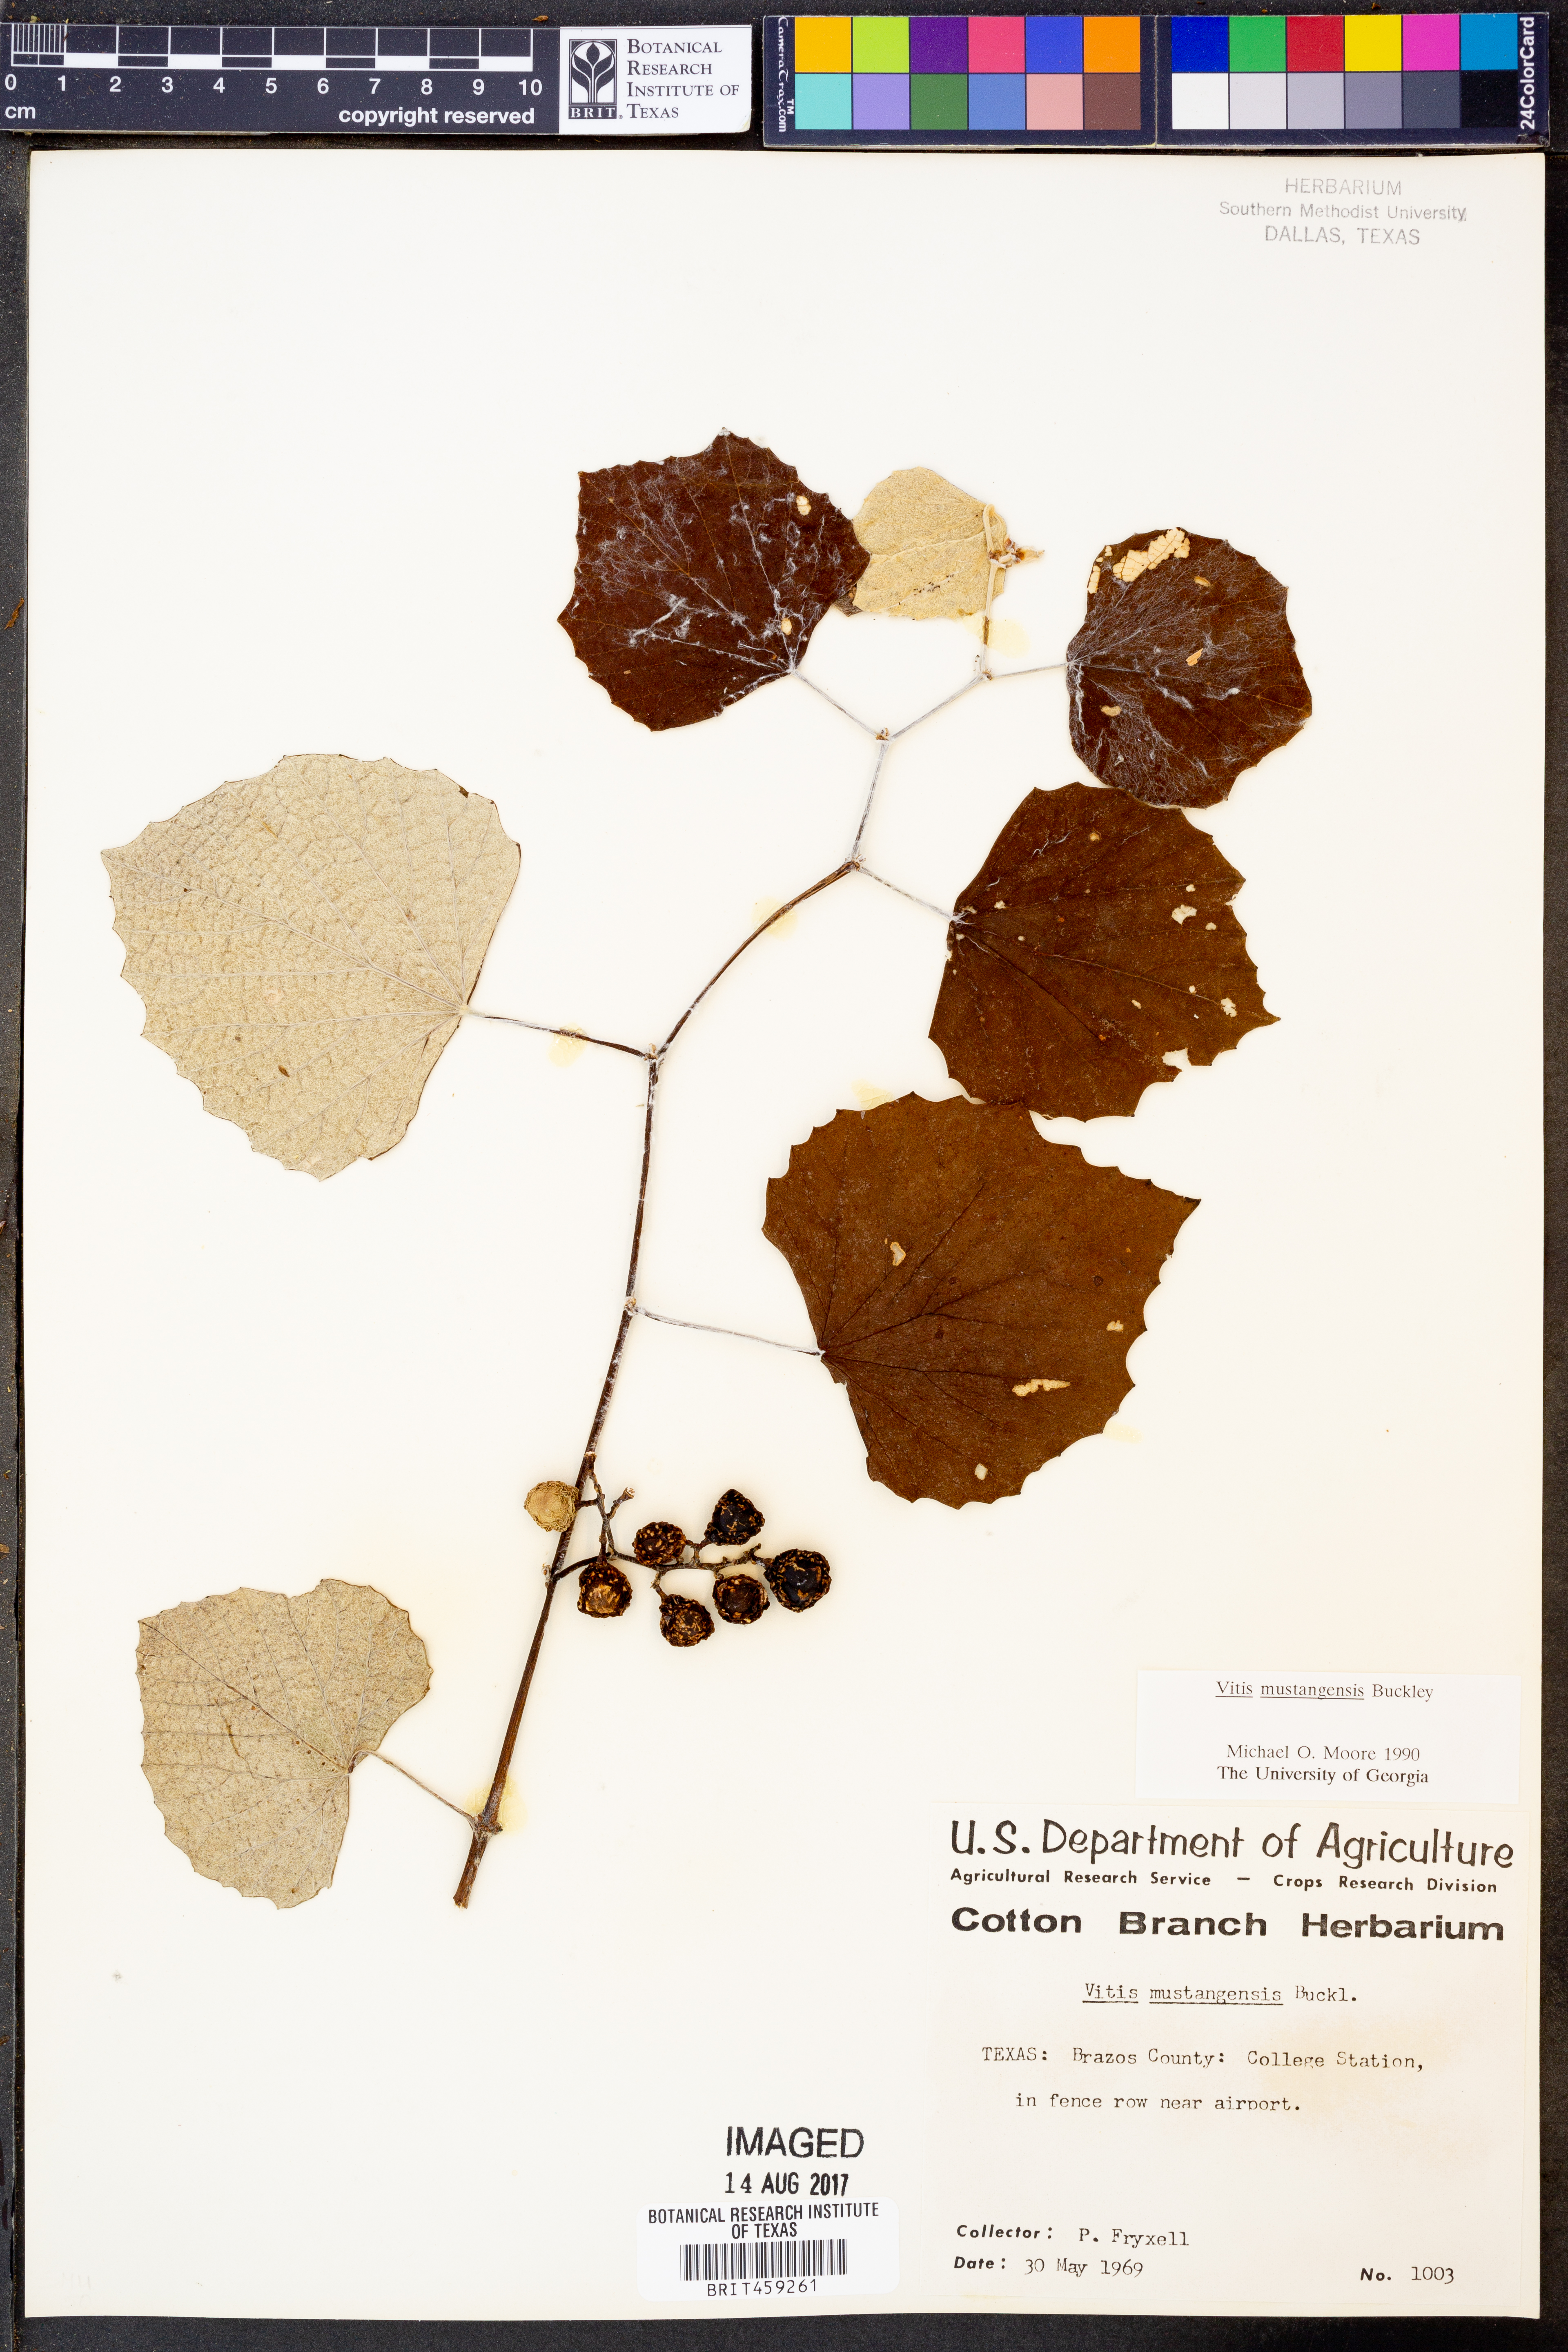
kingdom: Plantae
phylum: Tracheophyta
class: Magnoliopsida
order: Vitales
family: Vitaceae
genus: Vitis
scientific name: Vitis mustangensis
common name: Mustang grape
